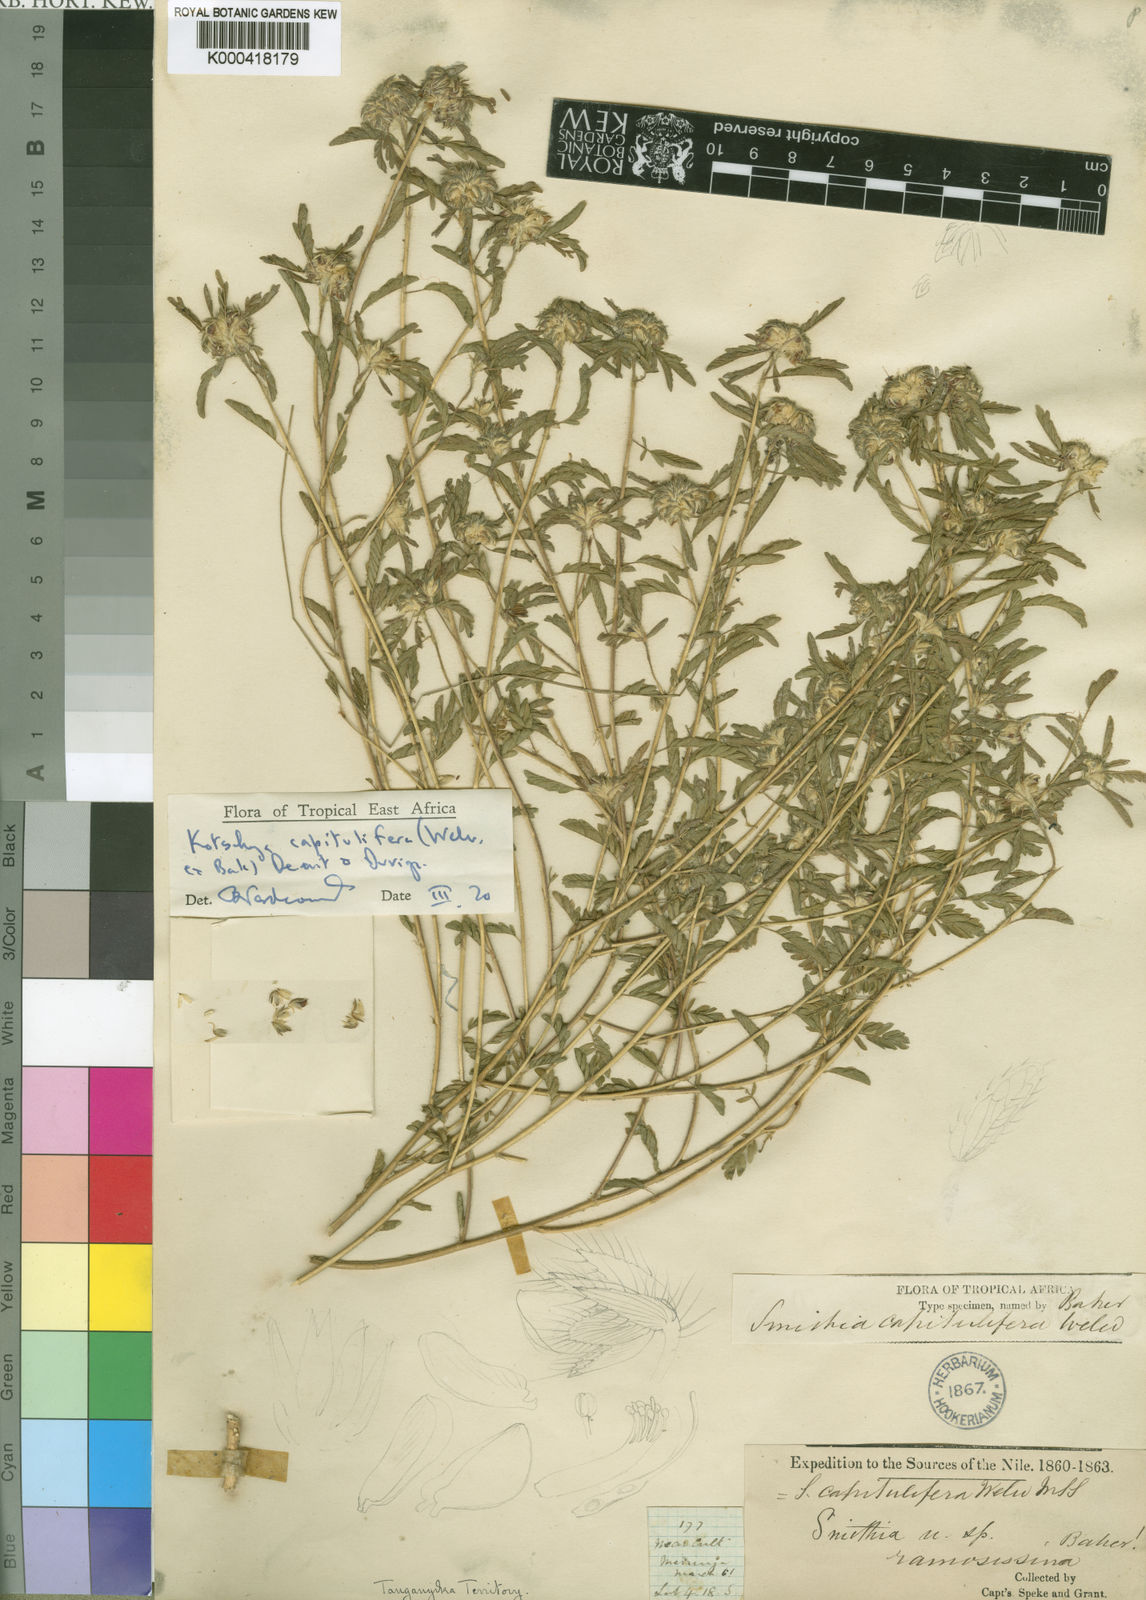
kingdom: Plantae
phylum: Tracheophyta
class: Magnoliopsida
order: Fabales
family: Fabaceae
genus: Kotschya
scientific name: Kotschya capitulifera
